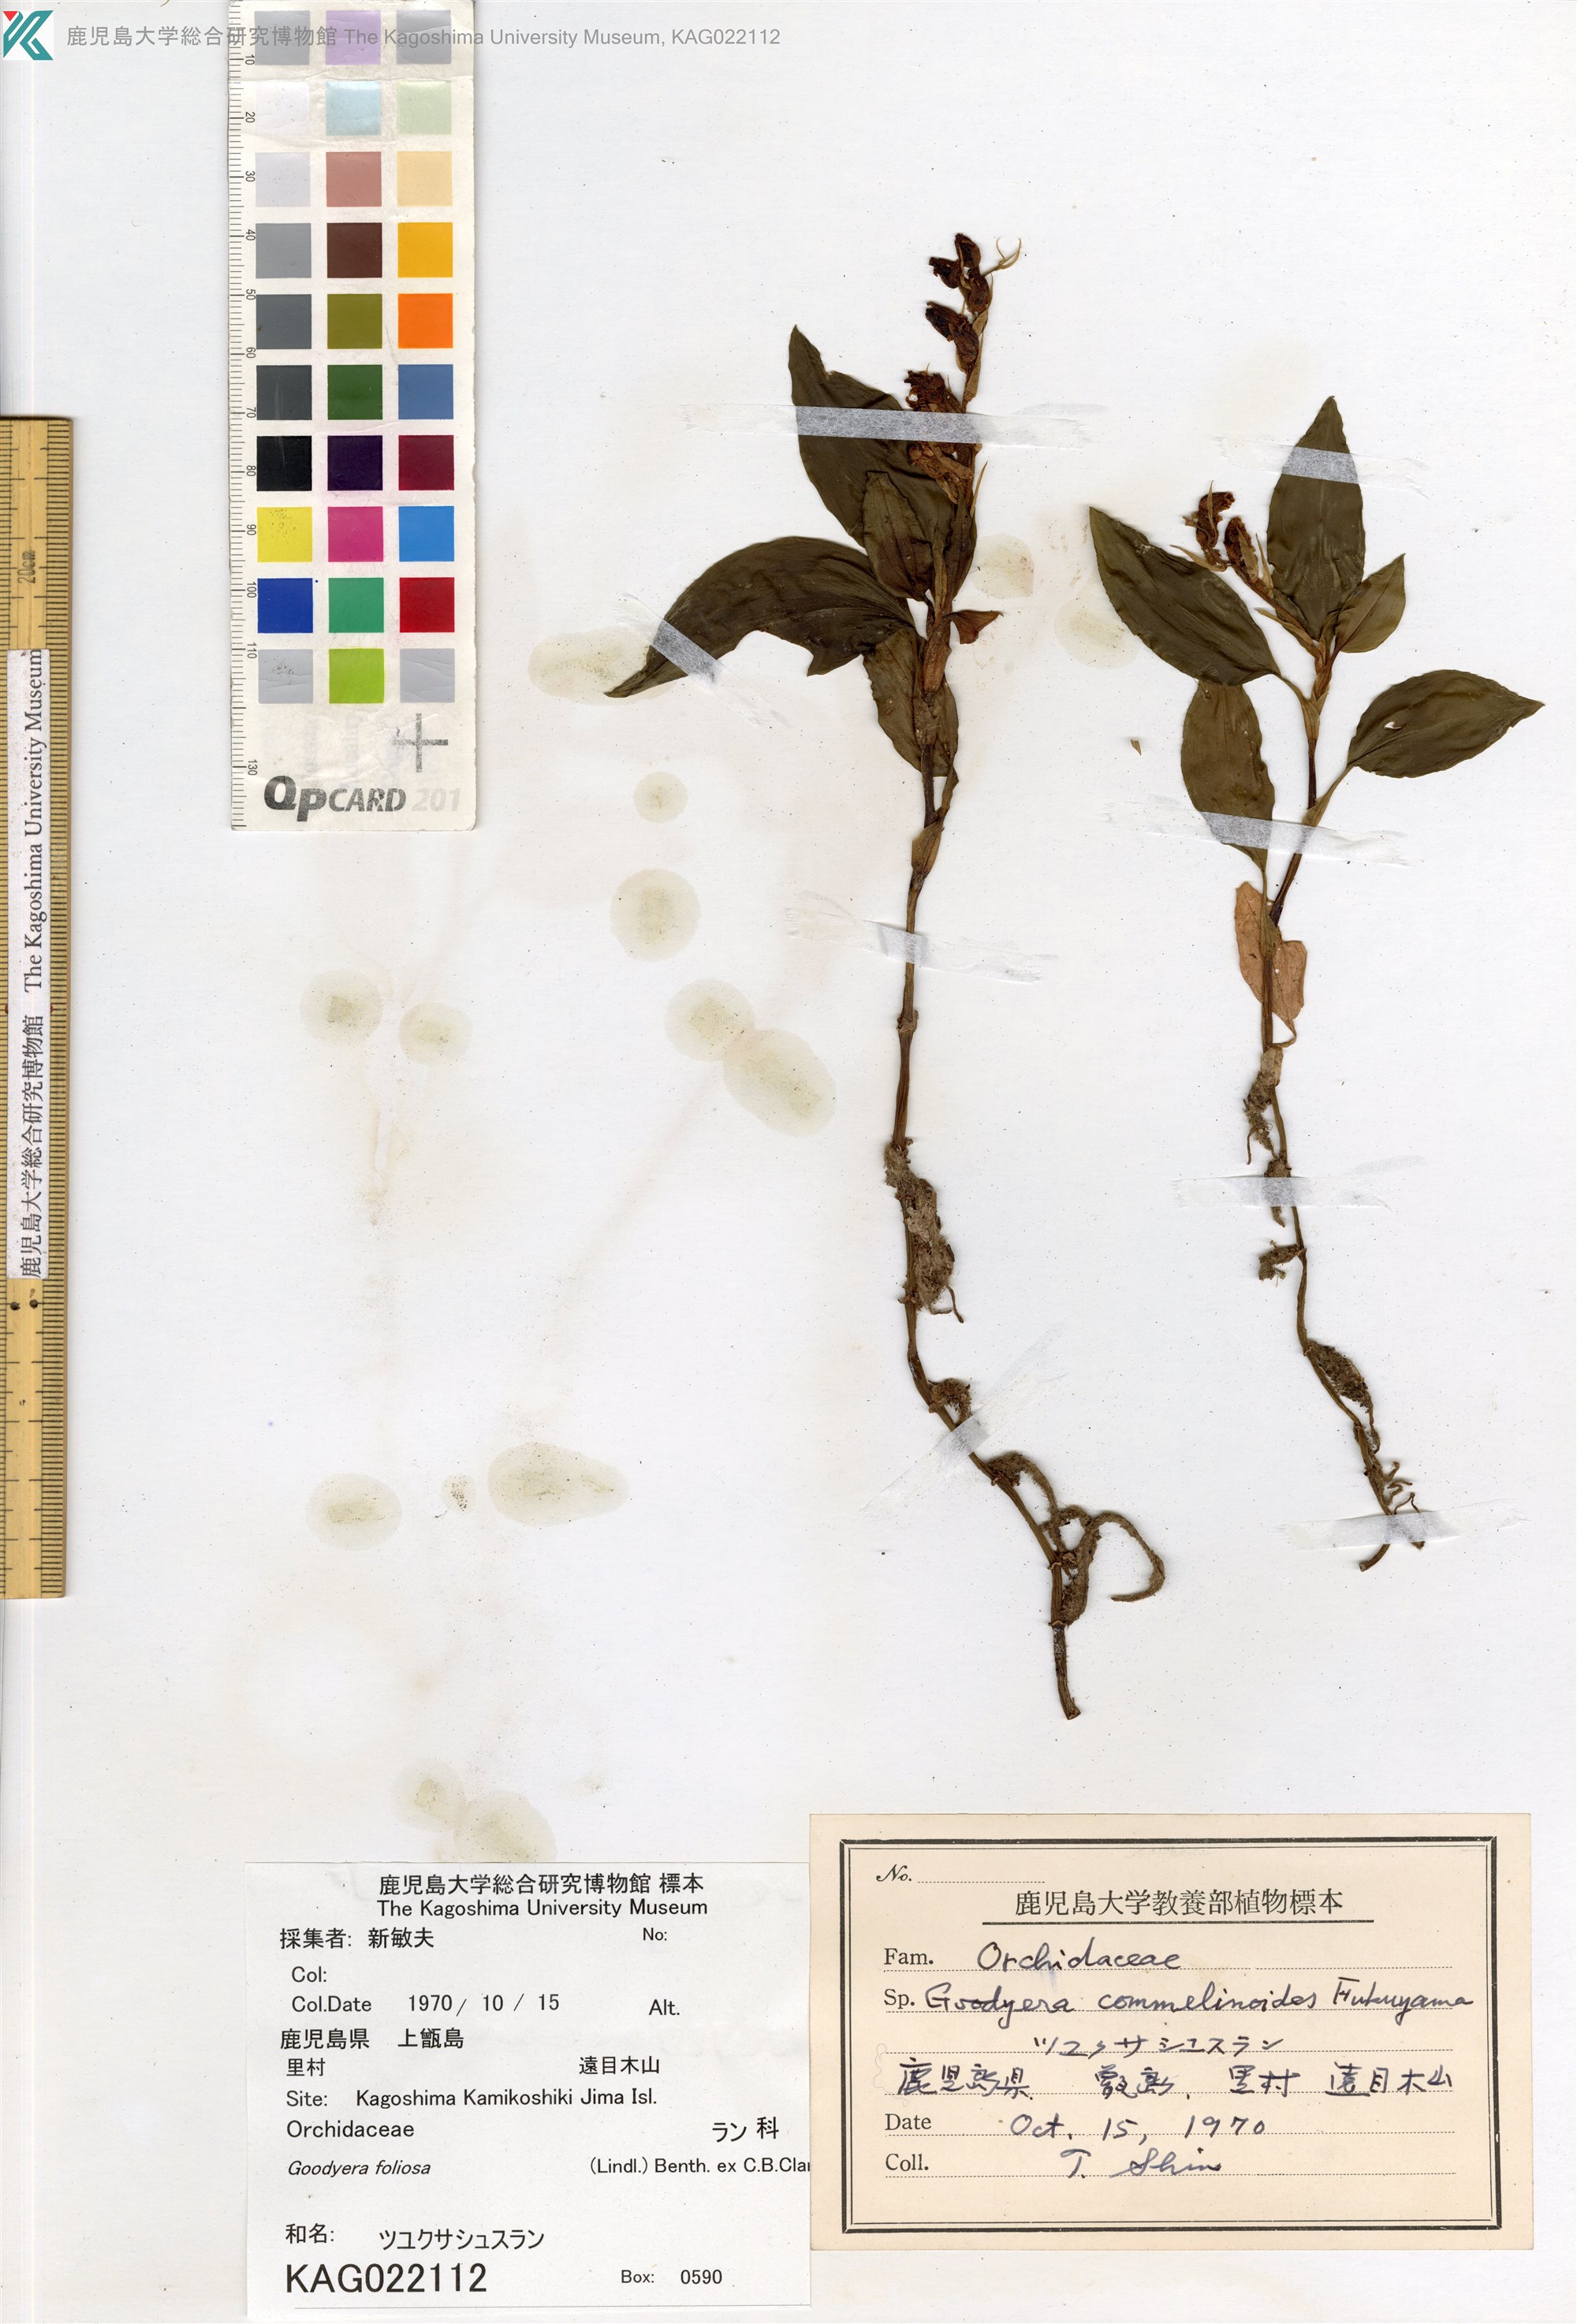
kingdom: Plantae
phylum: Tracheophyta
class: Liliopsida
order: Asparagales
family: Orchidaceae
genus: Goodyera
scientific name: Goodyera foliosa
